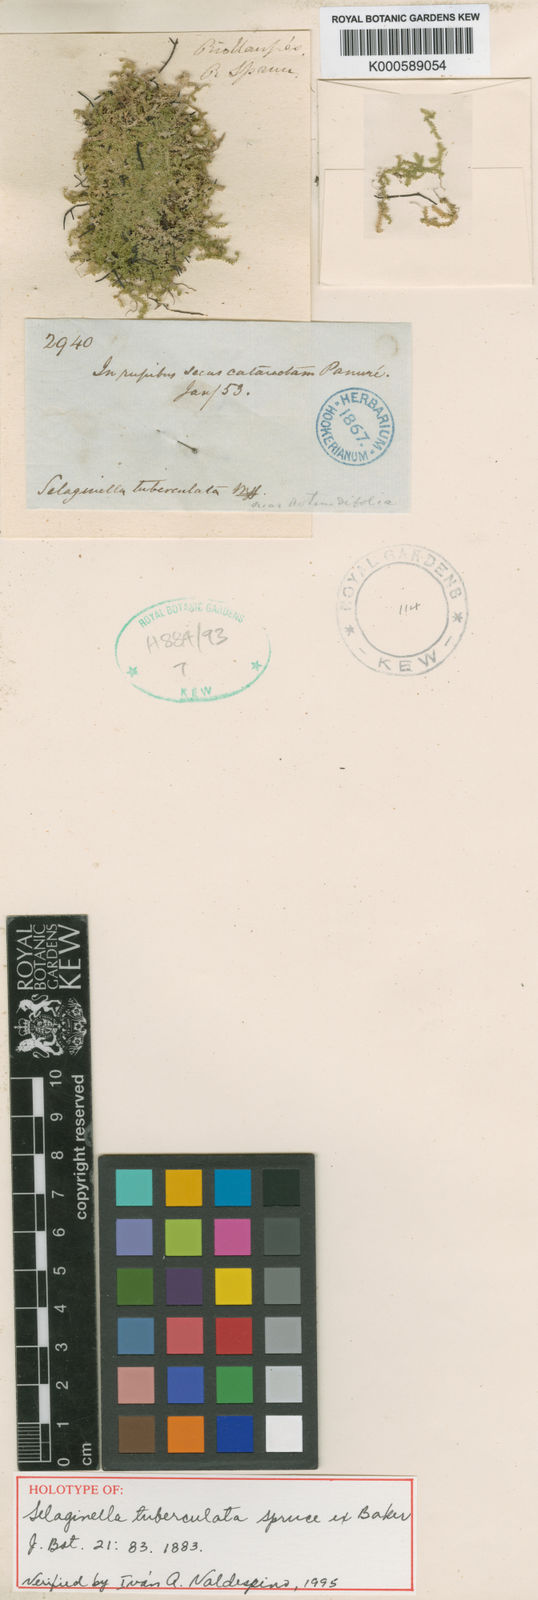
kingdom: Plantae
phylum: Tracheophyta
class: Lycopodiopsida
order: Selaginellales
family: Selaginellaceae
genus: Selaginella
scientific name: Selaginella
